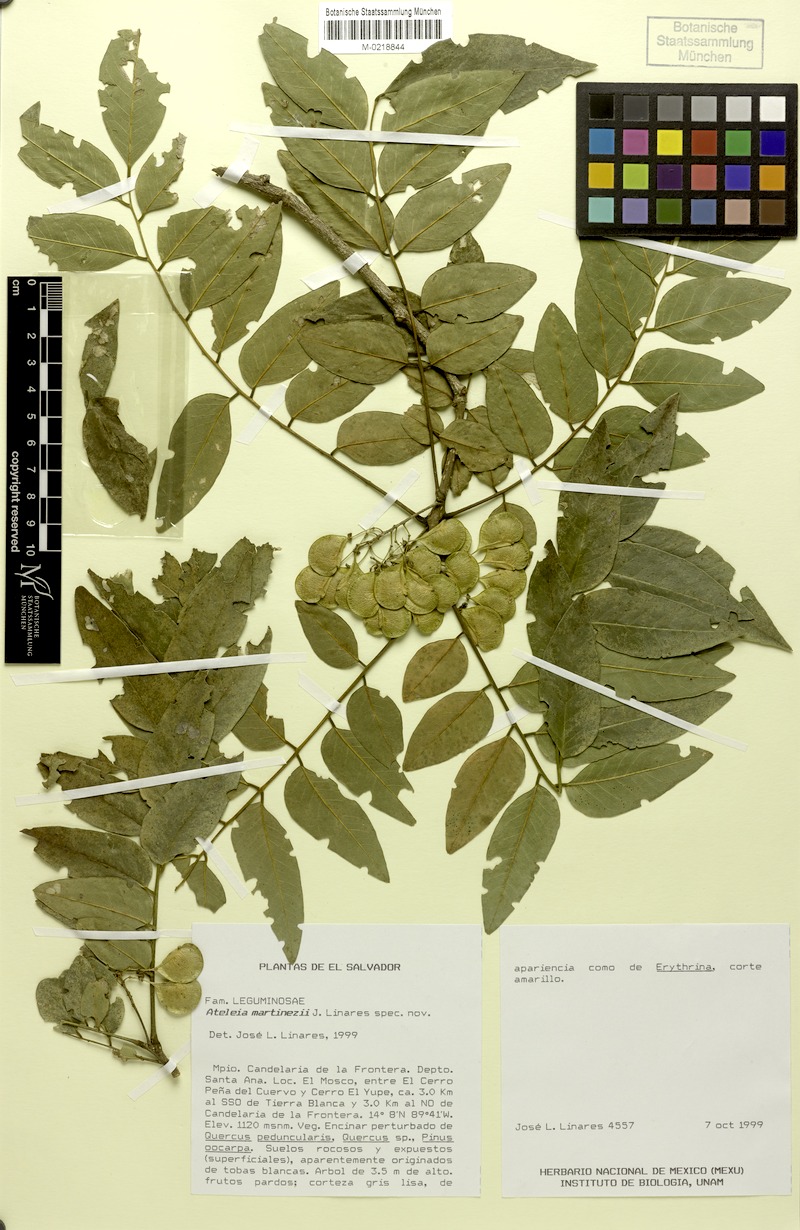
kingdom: Plantae
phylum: Tracheophyta
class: Magnoliopsida
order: Fabales
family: Fabaceae
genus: Ateleia
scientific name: Ateleia martinezii
